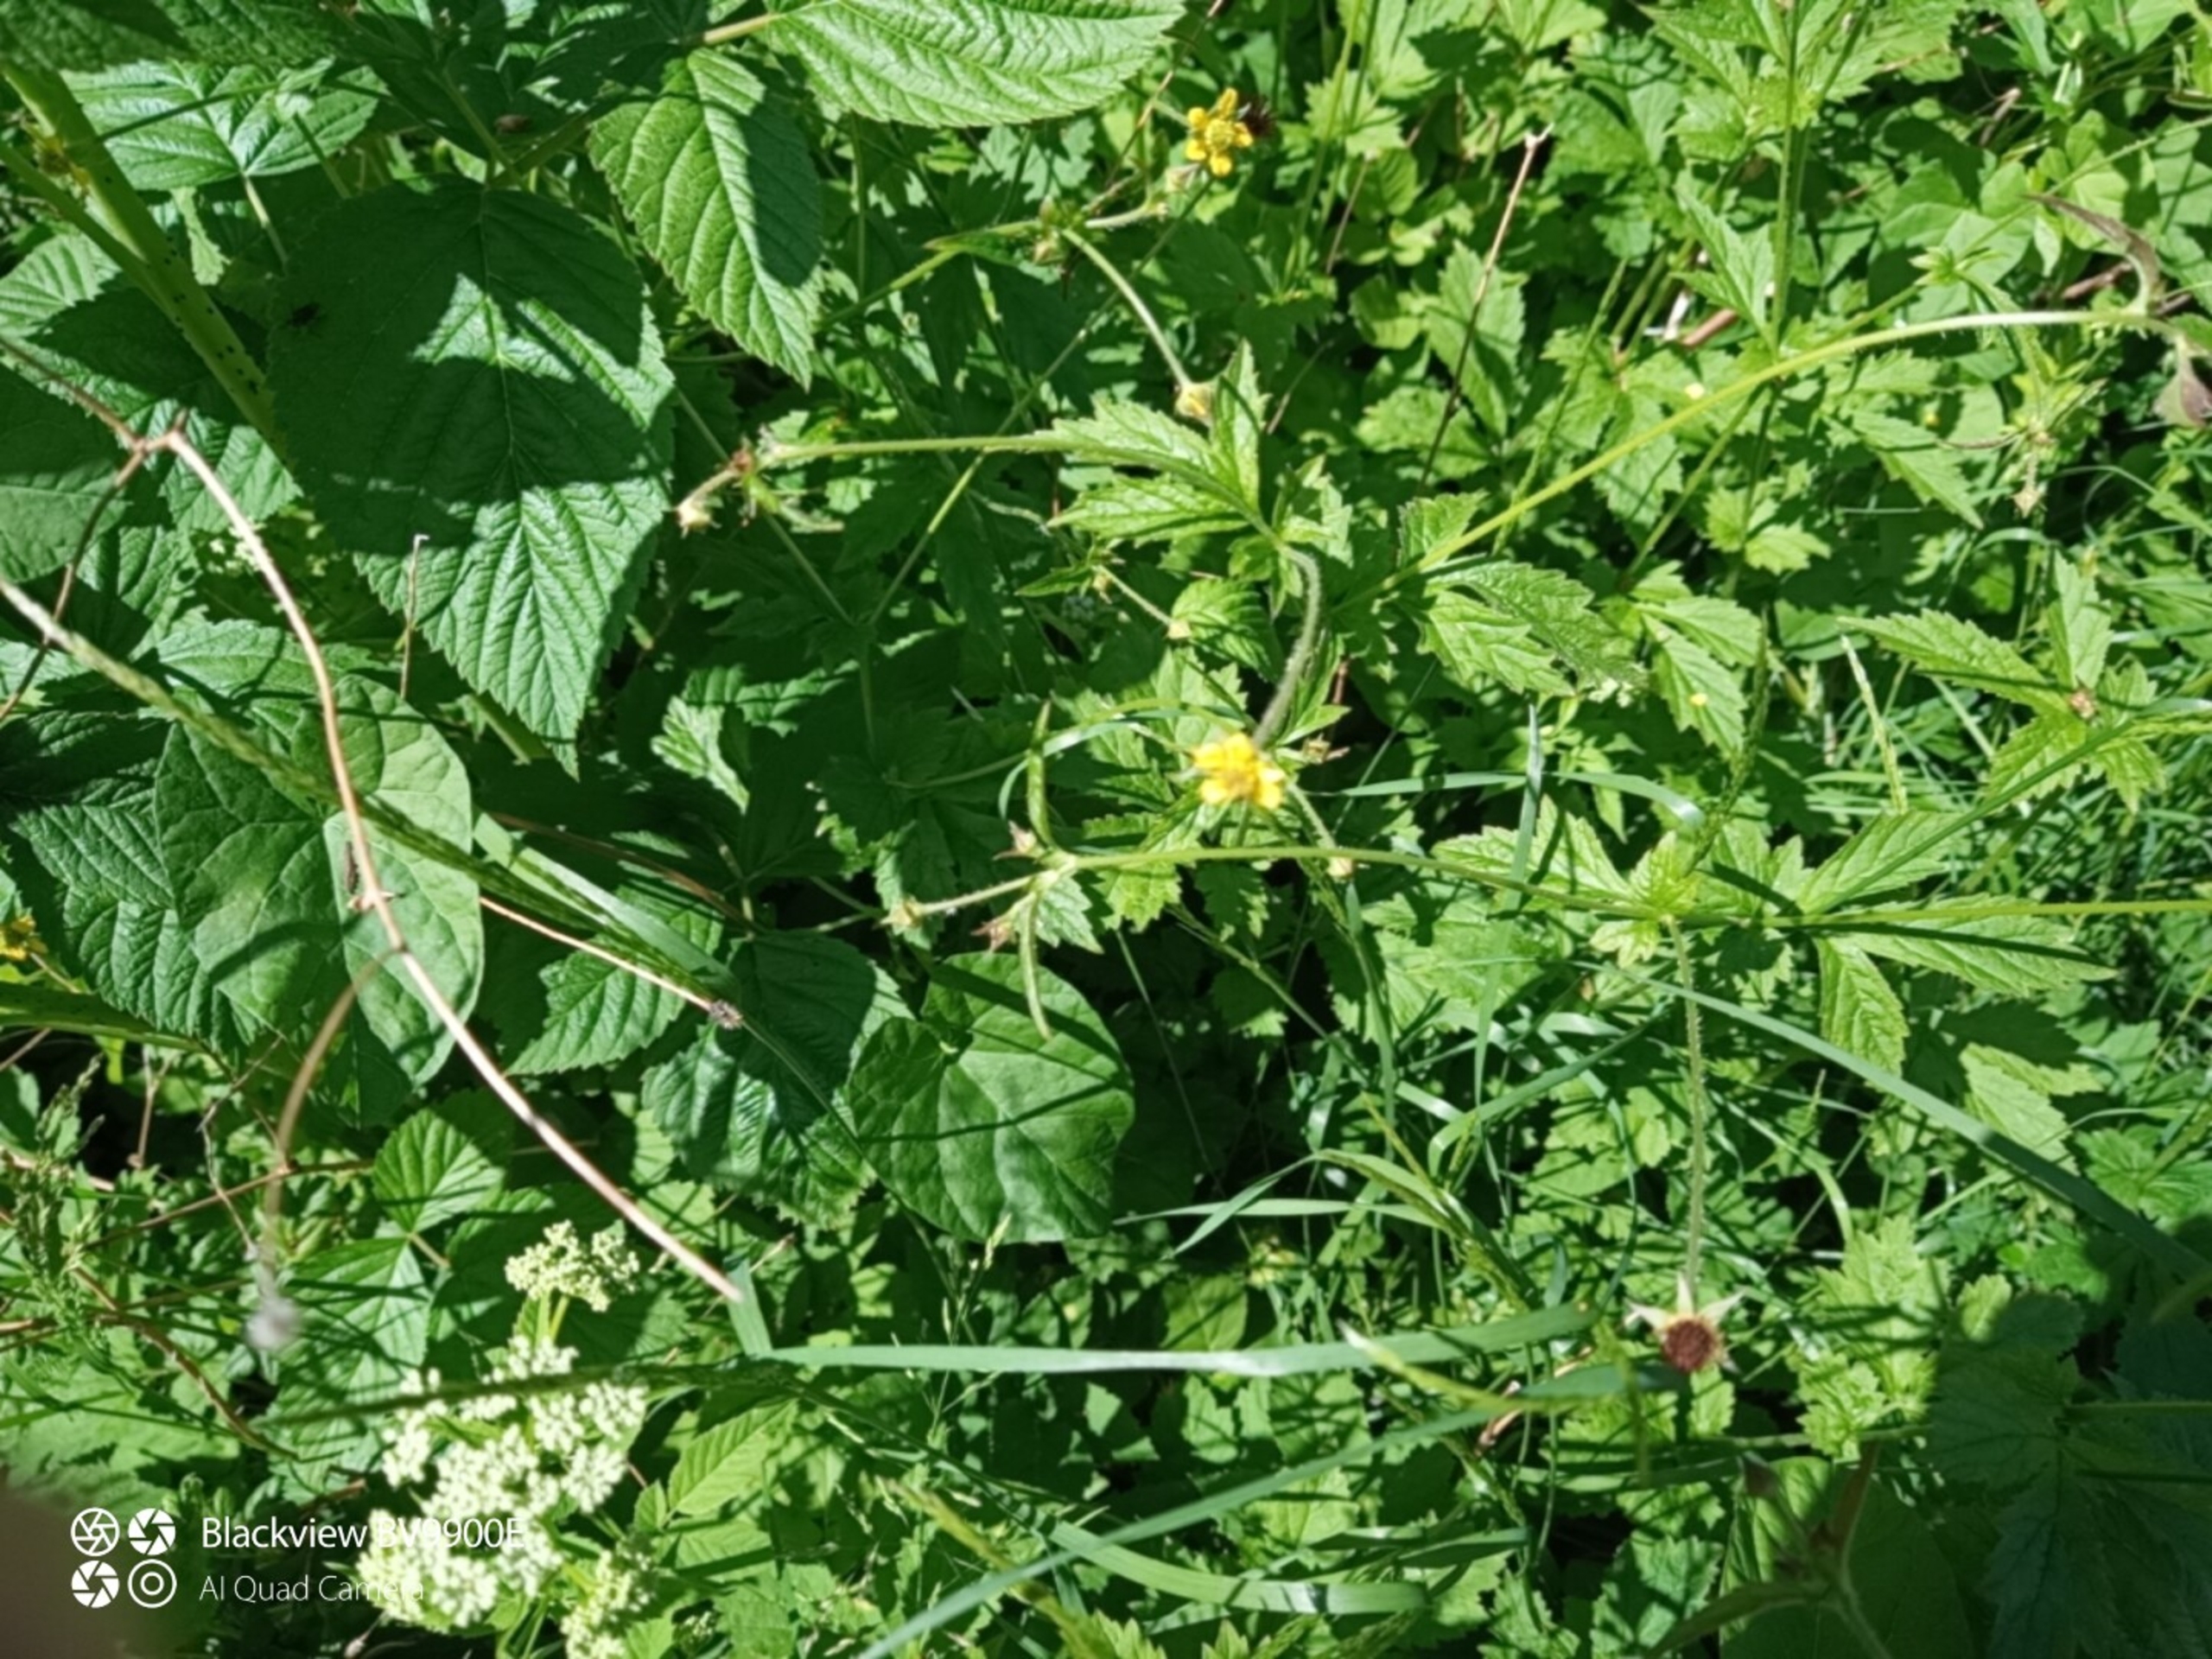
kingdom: Plantae
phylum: Tracheophyta
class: Magnoliopsida
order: Rosales
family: Rosaceae
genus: Geum
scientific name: Geum urbanum
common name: Feber-nellikerod
